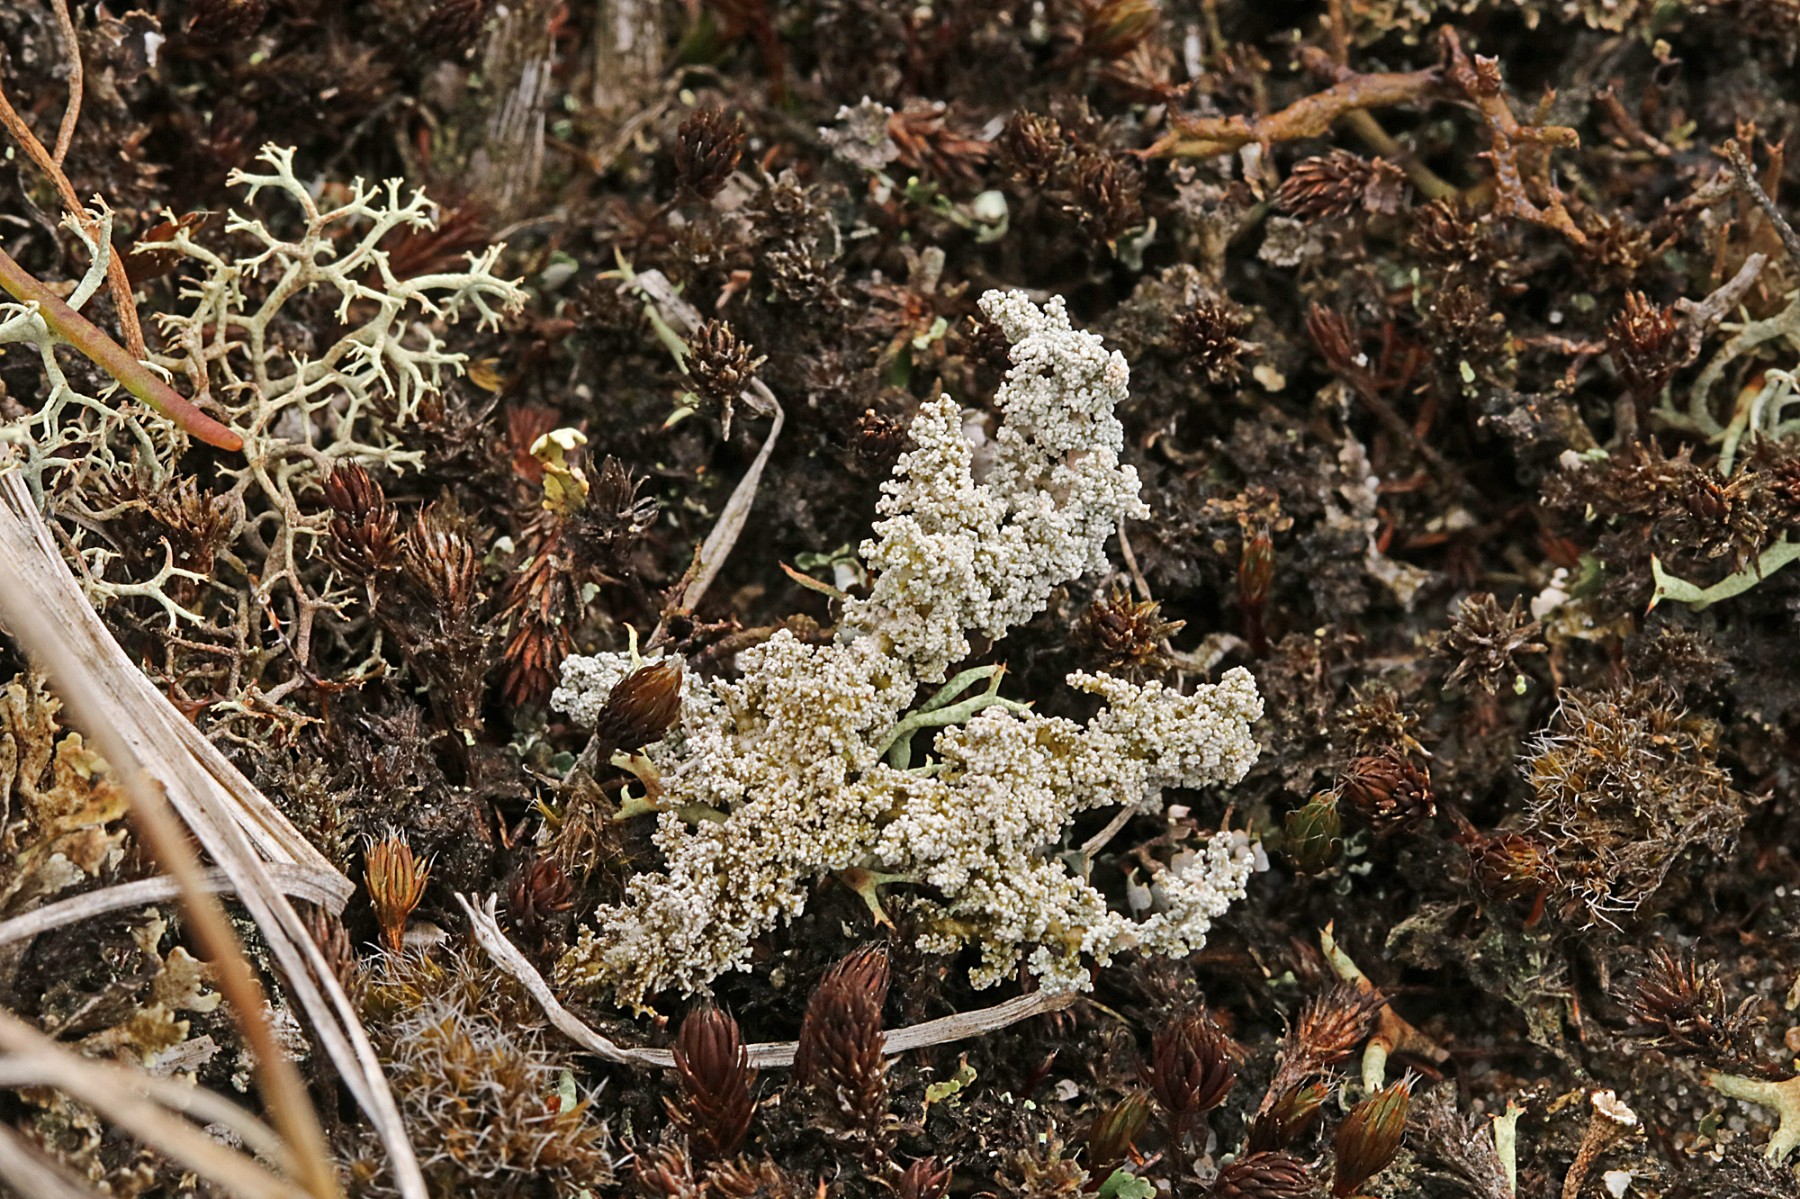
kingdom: Fungi
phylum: Ascomycota
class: Lecanoromycetes
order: Lecanorales
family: Stereocaulaceae
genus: Stereocaulon
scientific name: Stereocaulon saxatile
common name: klit-korallav
